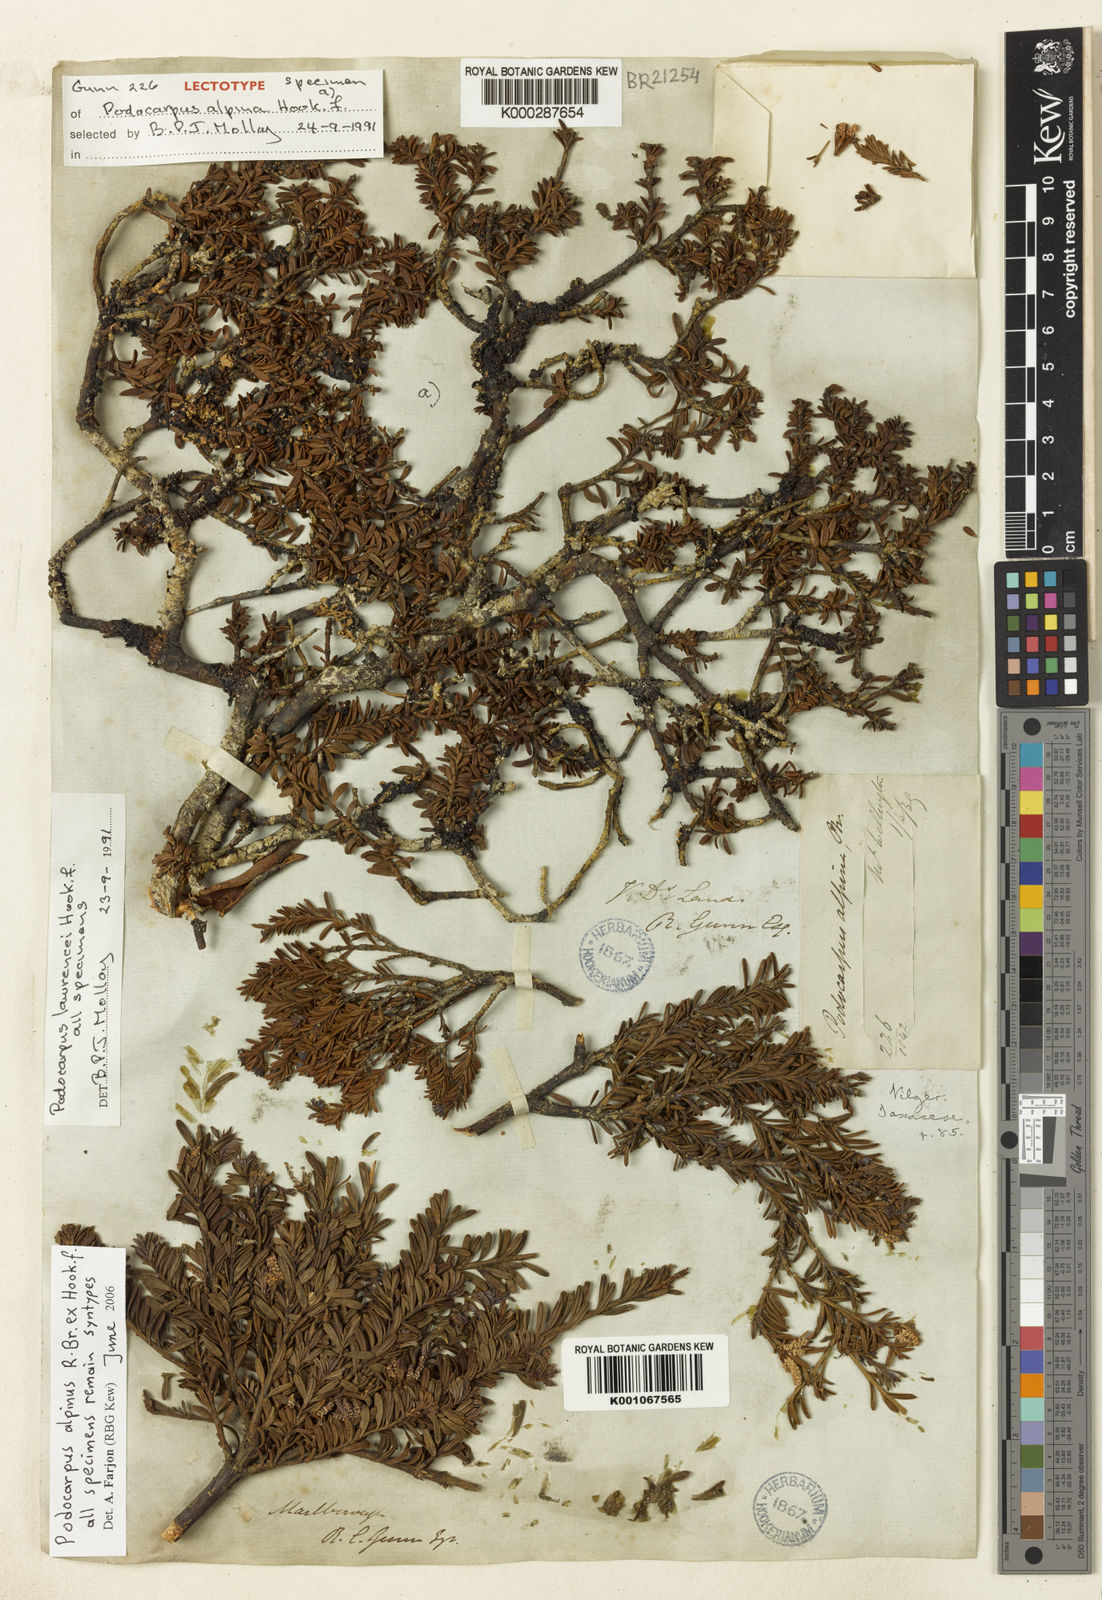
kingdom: Plantae
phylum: Tracheophyta
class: Pinopsida
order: Pinales
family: Podocarpaceae
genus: Podocarpus
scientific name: Podocarpus lawrencei
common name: Mountain plum pine
